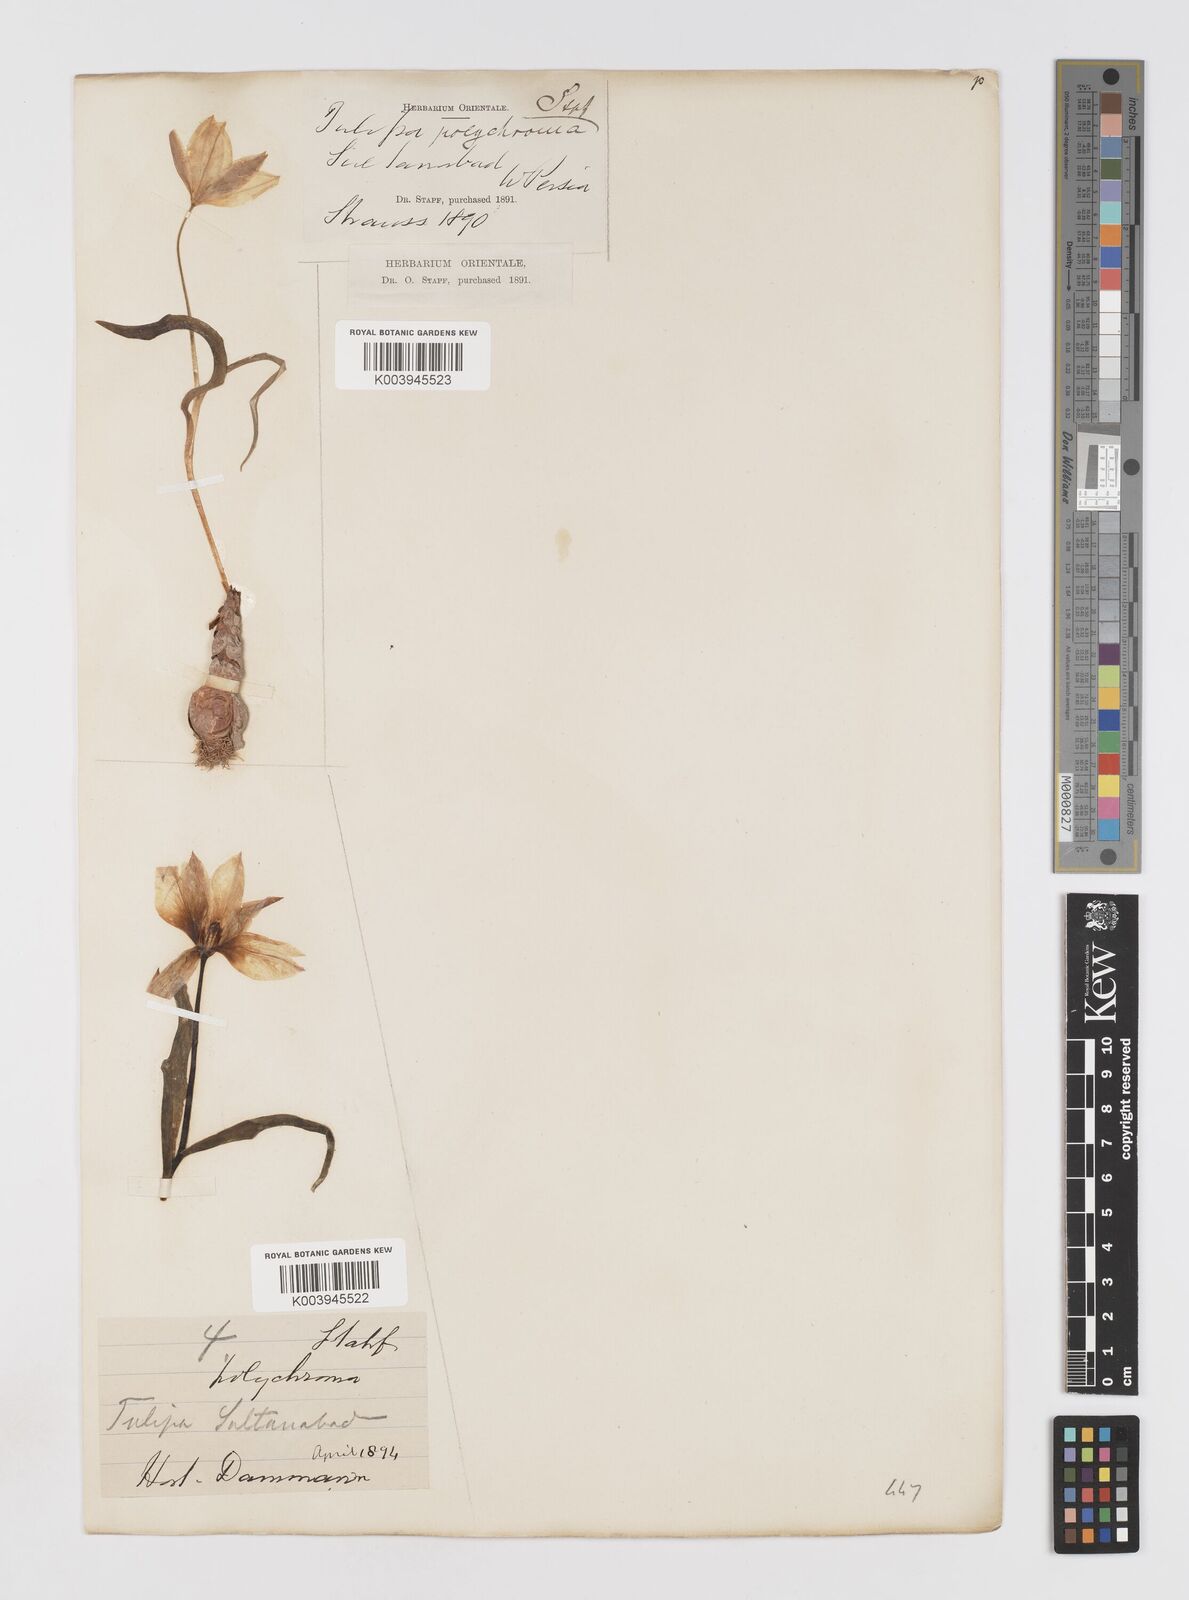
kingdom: Plantae
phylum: Tracheophyta
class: Liliopsida
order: Liliales
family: Liliaceae
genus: Tulipa
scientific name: Tulipa biflora
